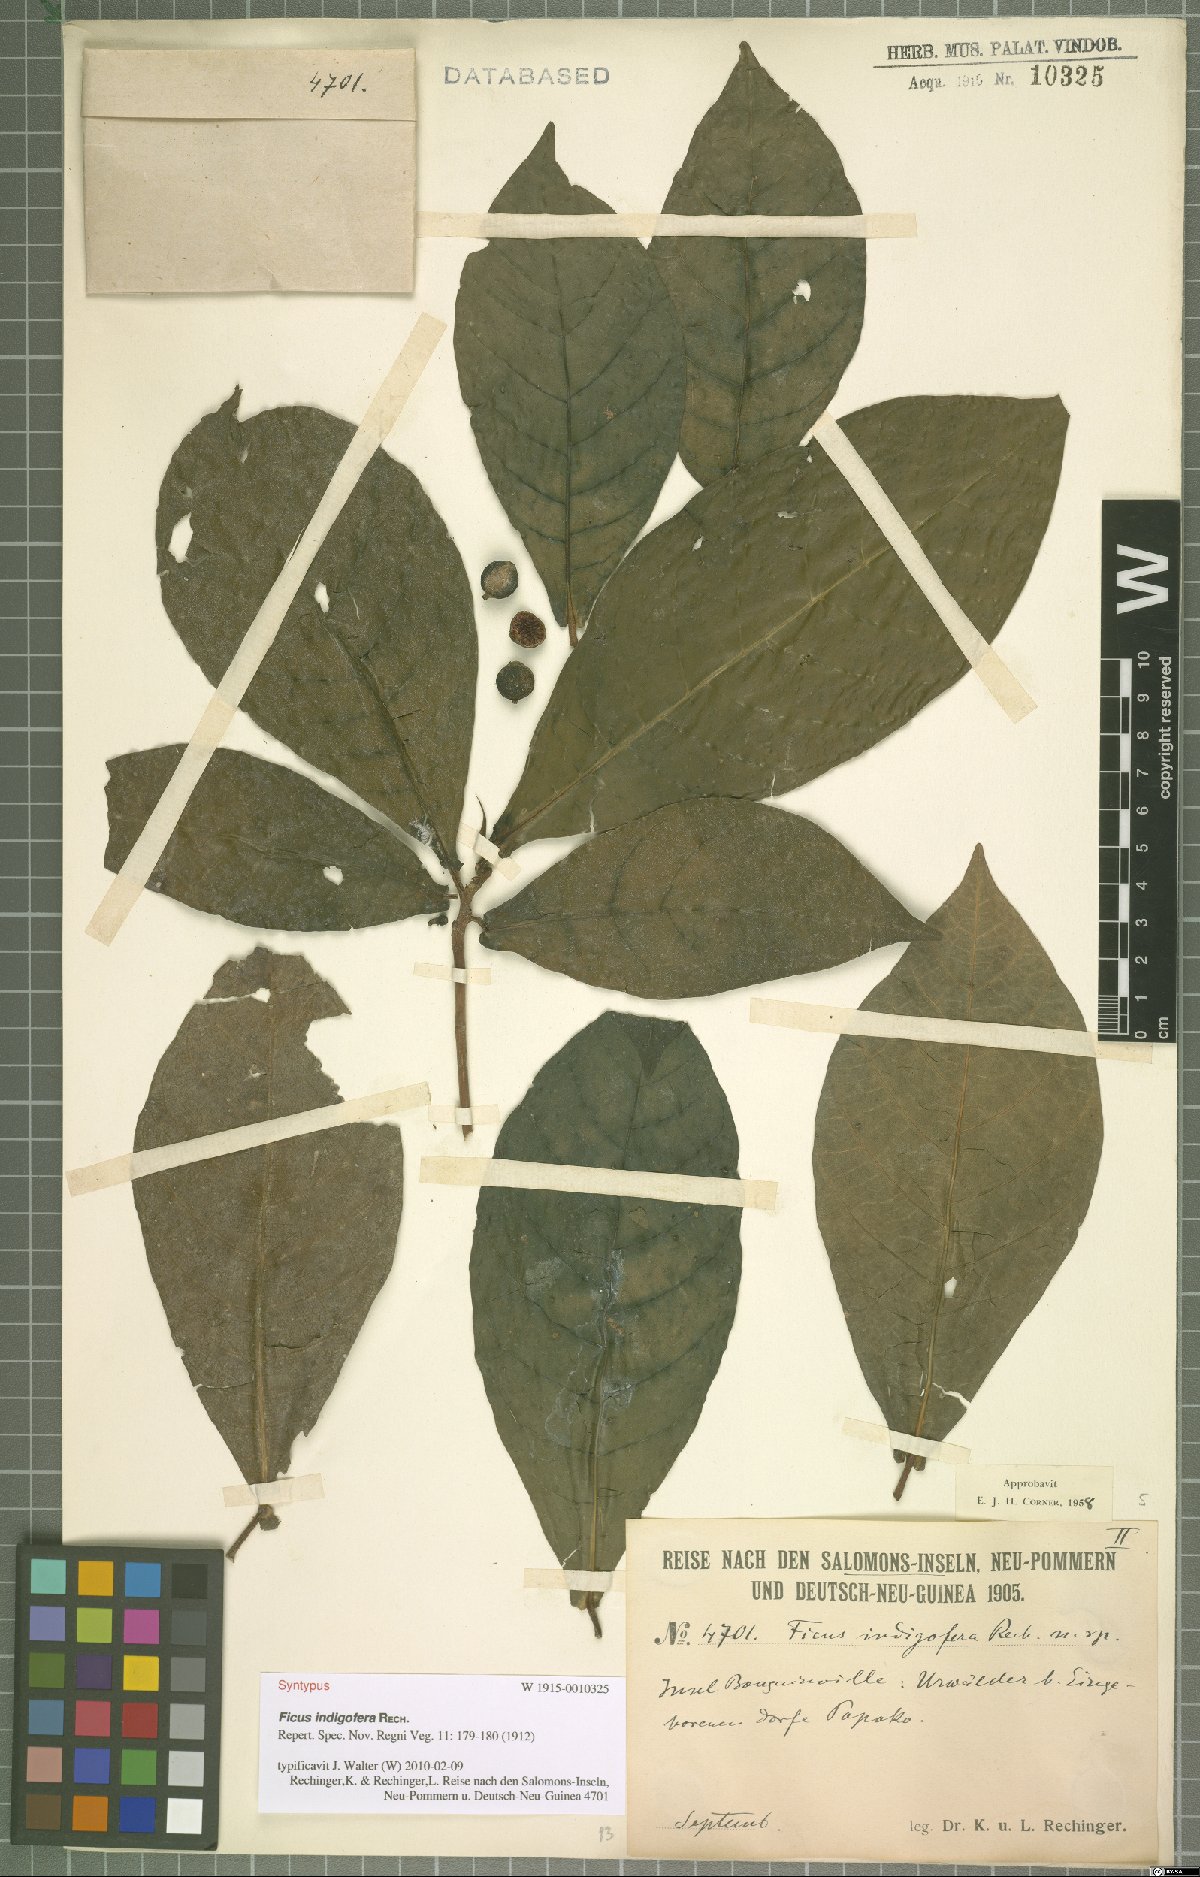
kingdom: Plantae
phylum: Tracheophyta
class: Magnoliopsida
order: Rosales
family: Moraceae
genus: Ficus
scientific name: Ficus indigofera
